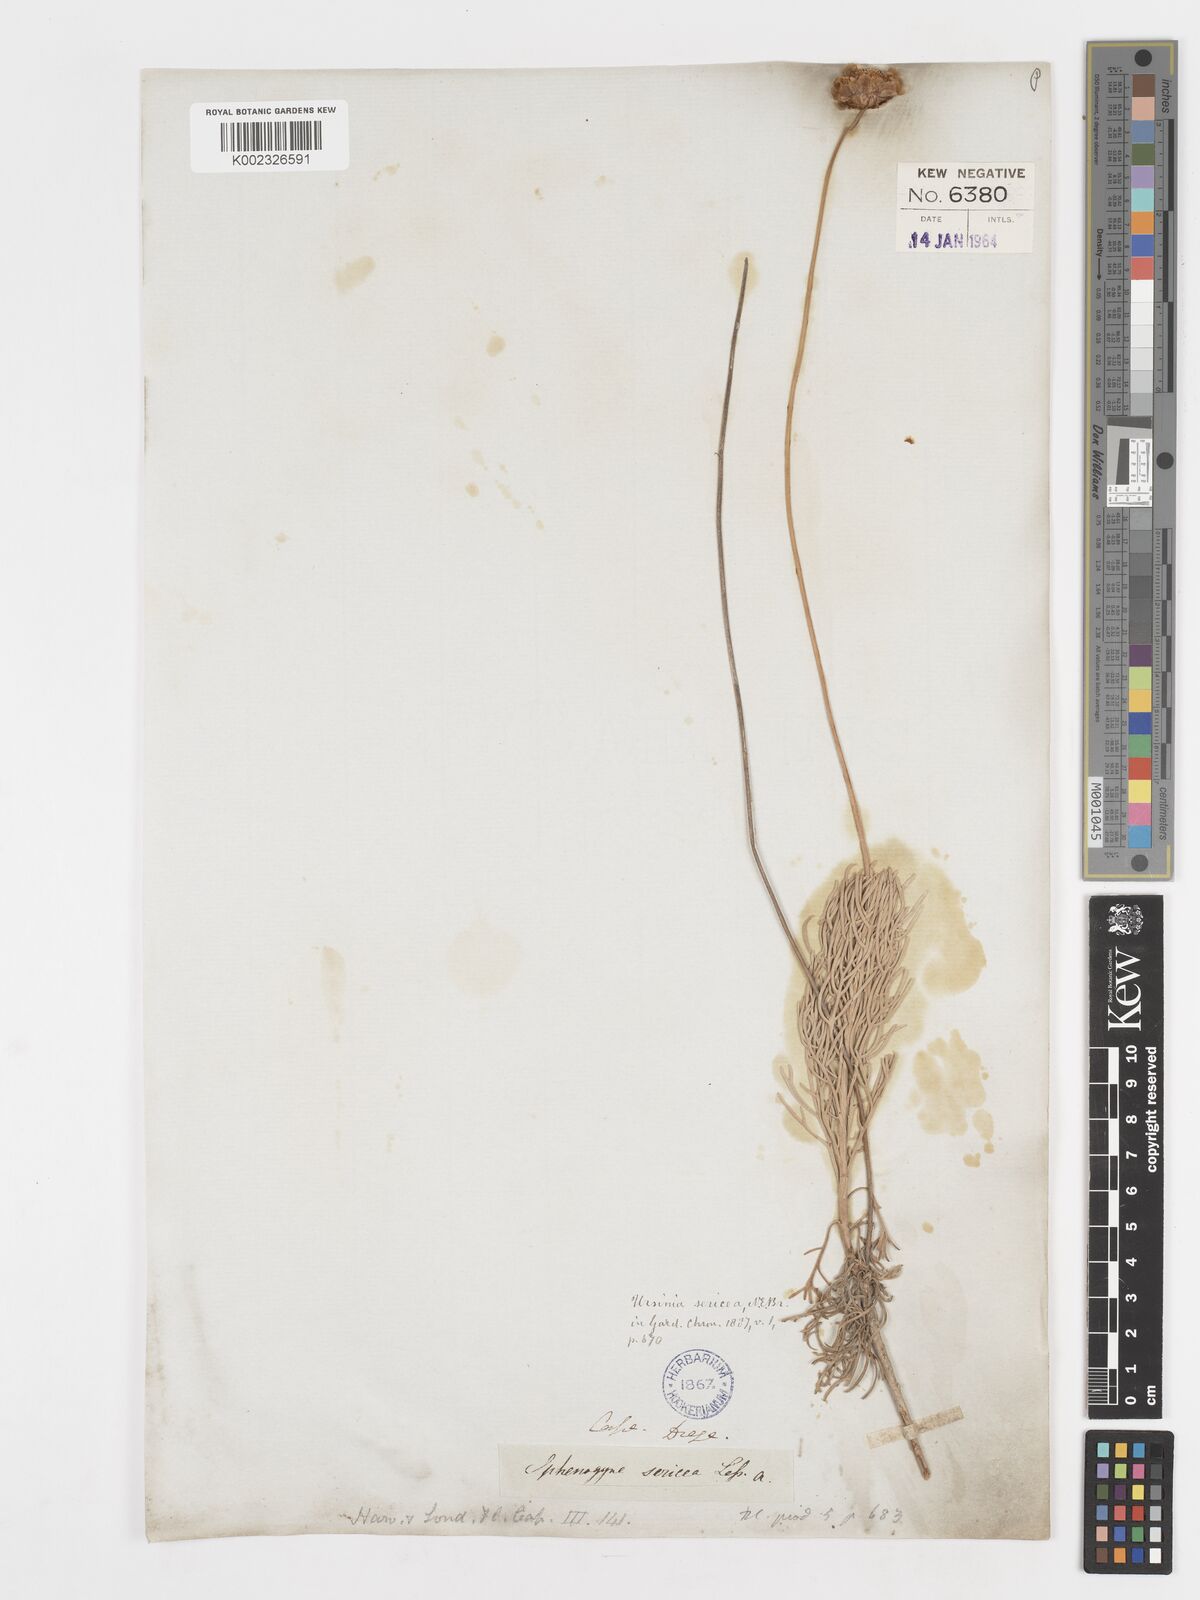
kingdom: Plantae
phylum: Tracheophyta
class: Magnoliopsida
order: Asterales
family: Asteraceae
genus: Ursinia
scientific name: Ursinia sericea
